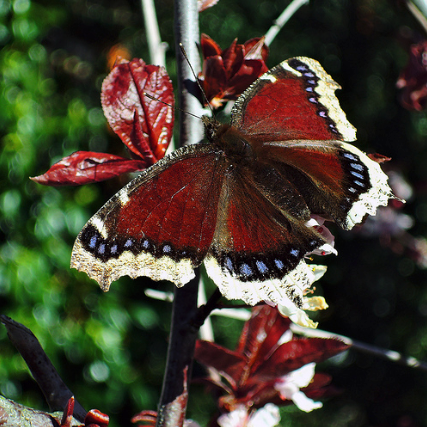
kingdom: Animalia
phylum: Arthropoda
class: Insecta
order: Lepidoptera
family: Nymphalidae
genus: Nymphalis
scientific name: Nymphalis antiopa
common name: Mourning Cloak
